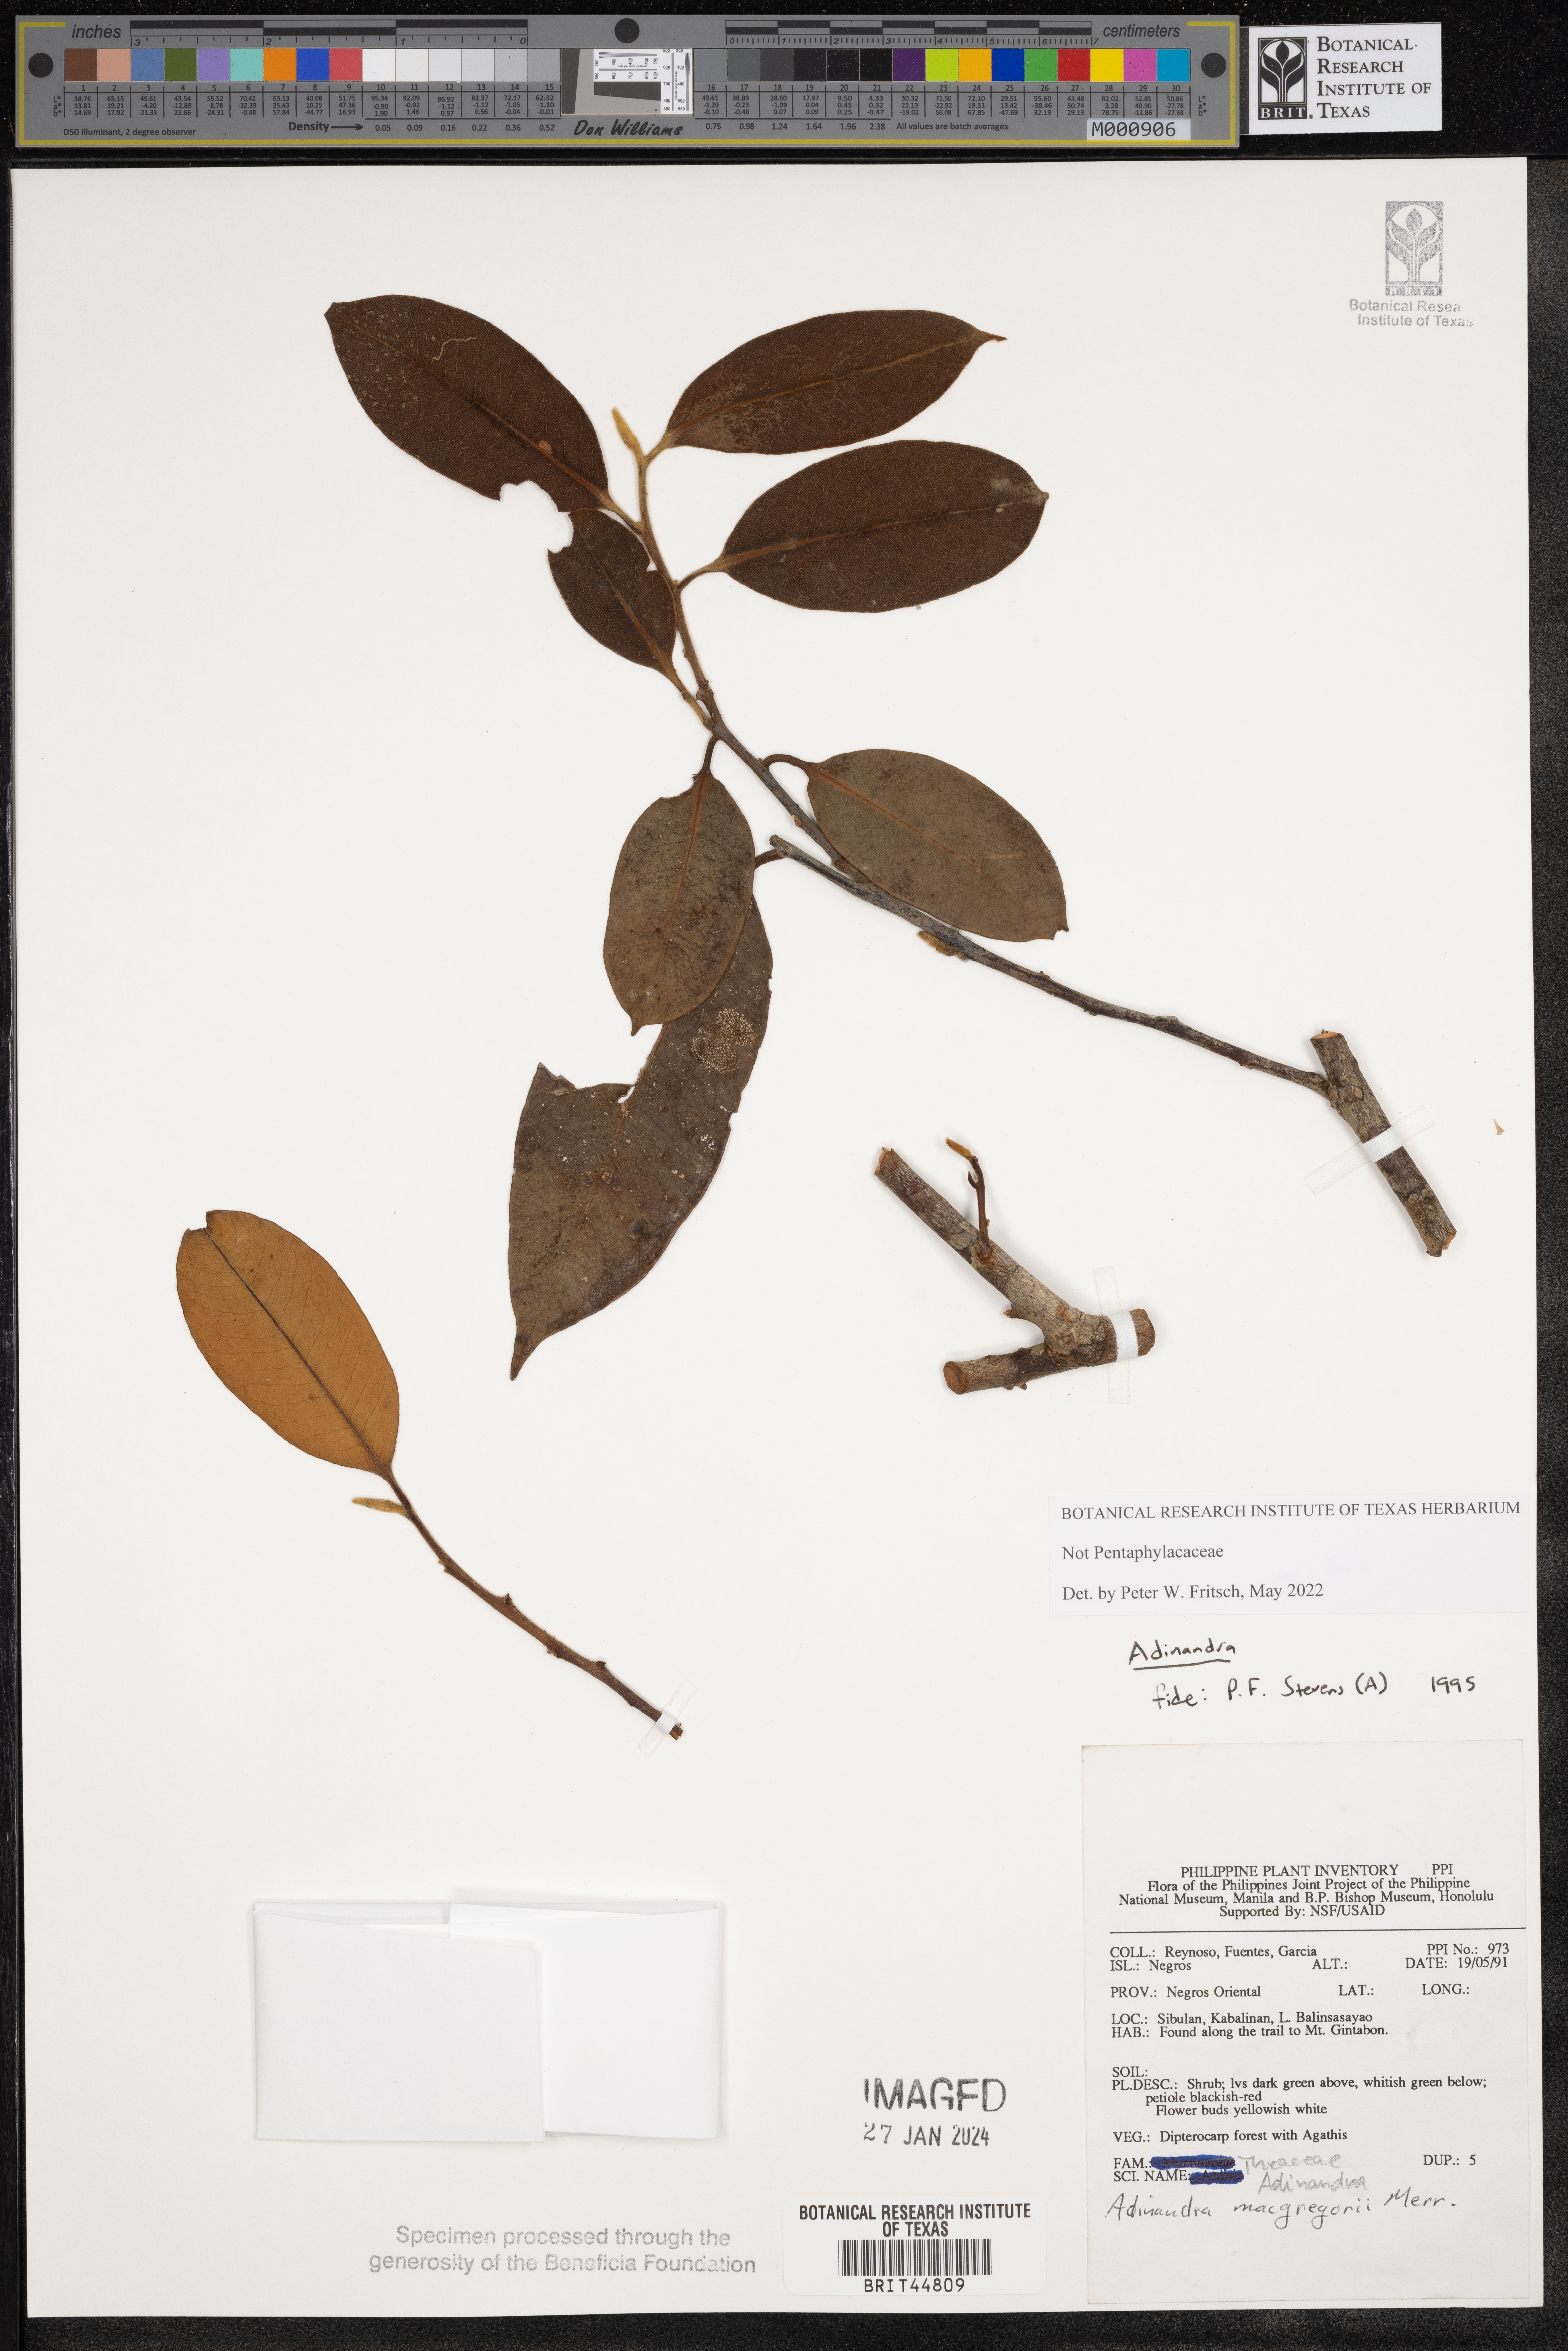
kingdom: Plantae
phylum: Tracheophyta
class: Magnoliopsida
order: Ericales
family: Pentaphylacaceae
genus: Adinandra
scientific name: Adinandra
